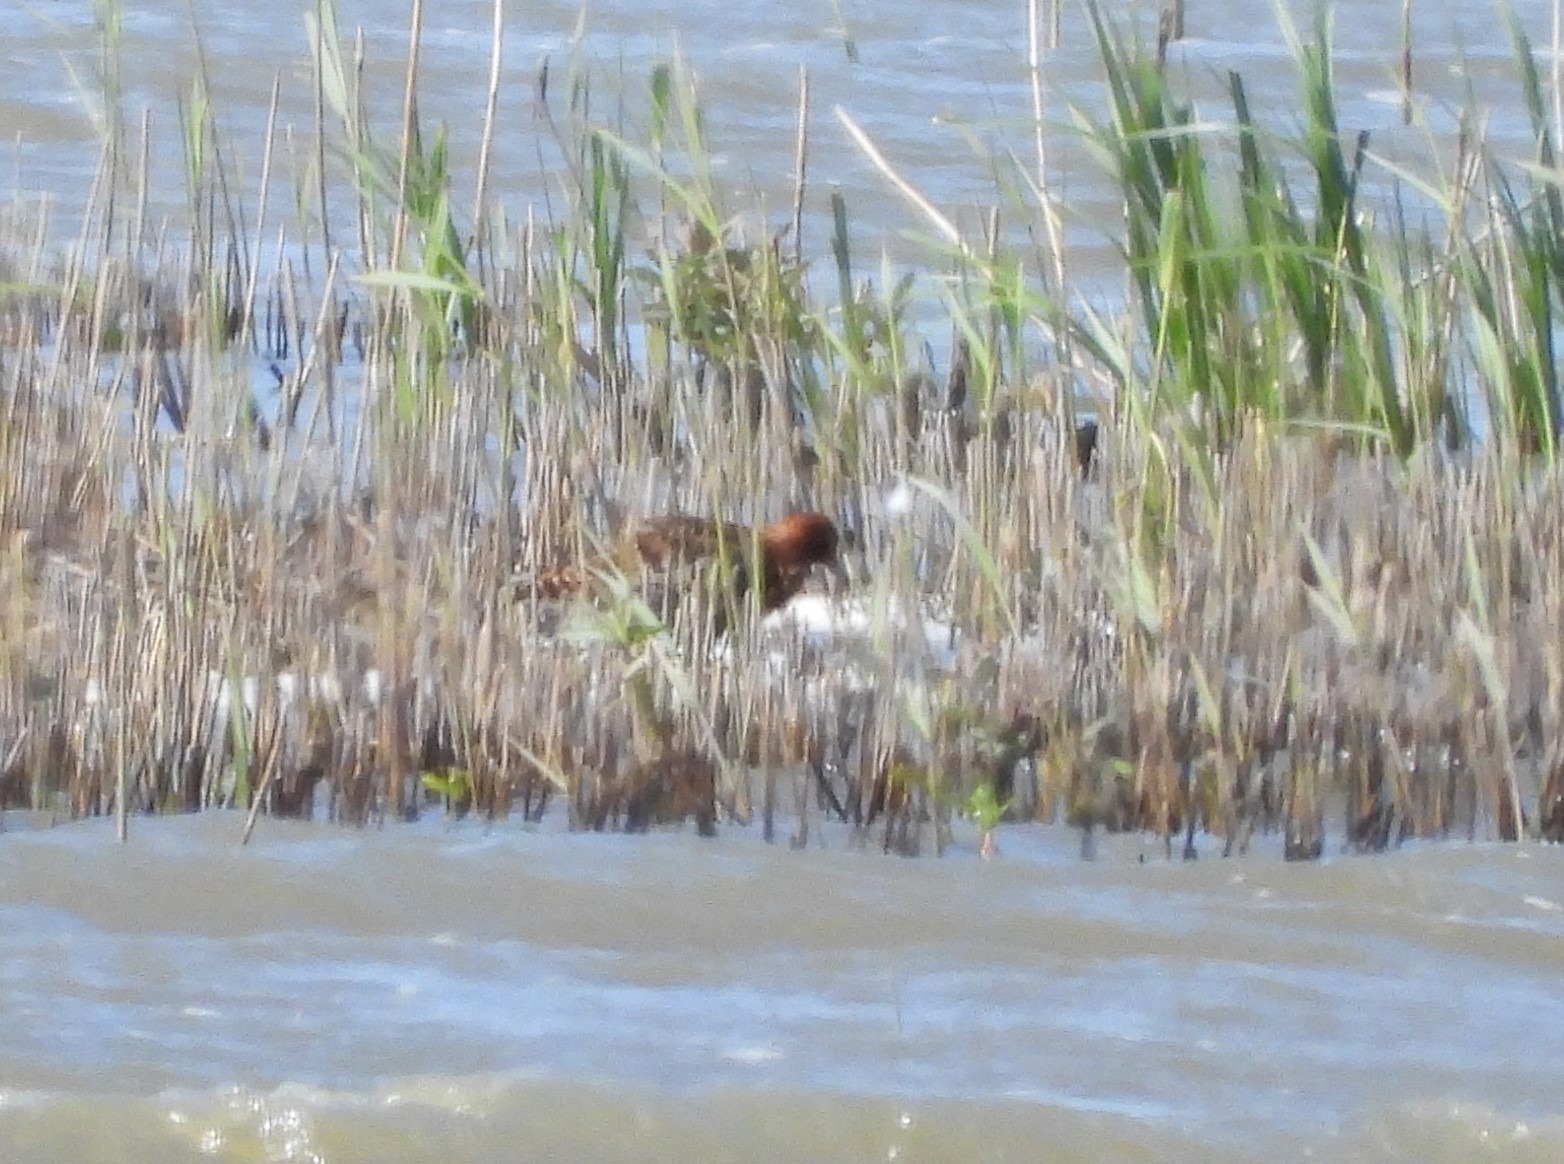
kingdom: Animalia
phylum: Chordata
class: Aves
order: Charadriiformes
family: Scolopacidae
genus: Calidris
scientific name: Calidris pugnax
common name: Brushane
